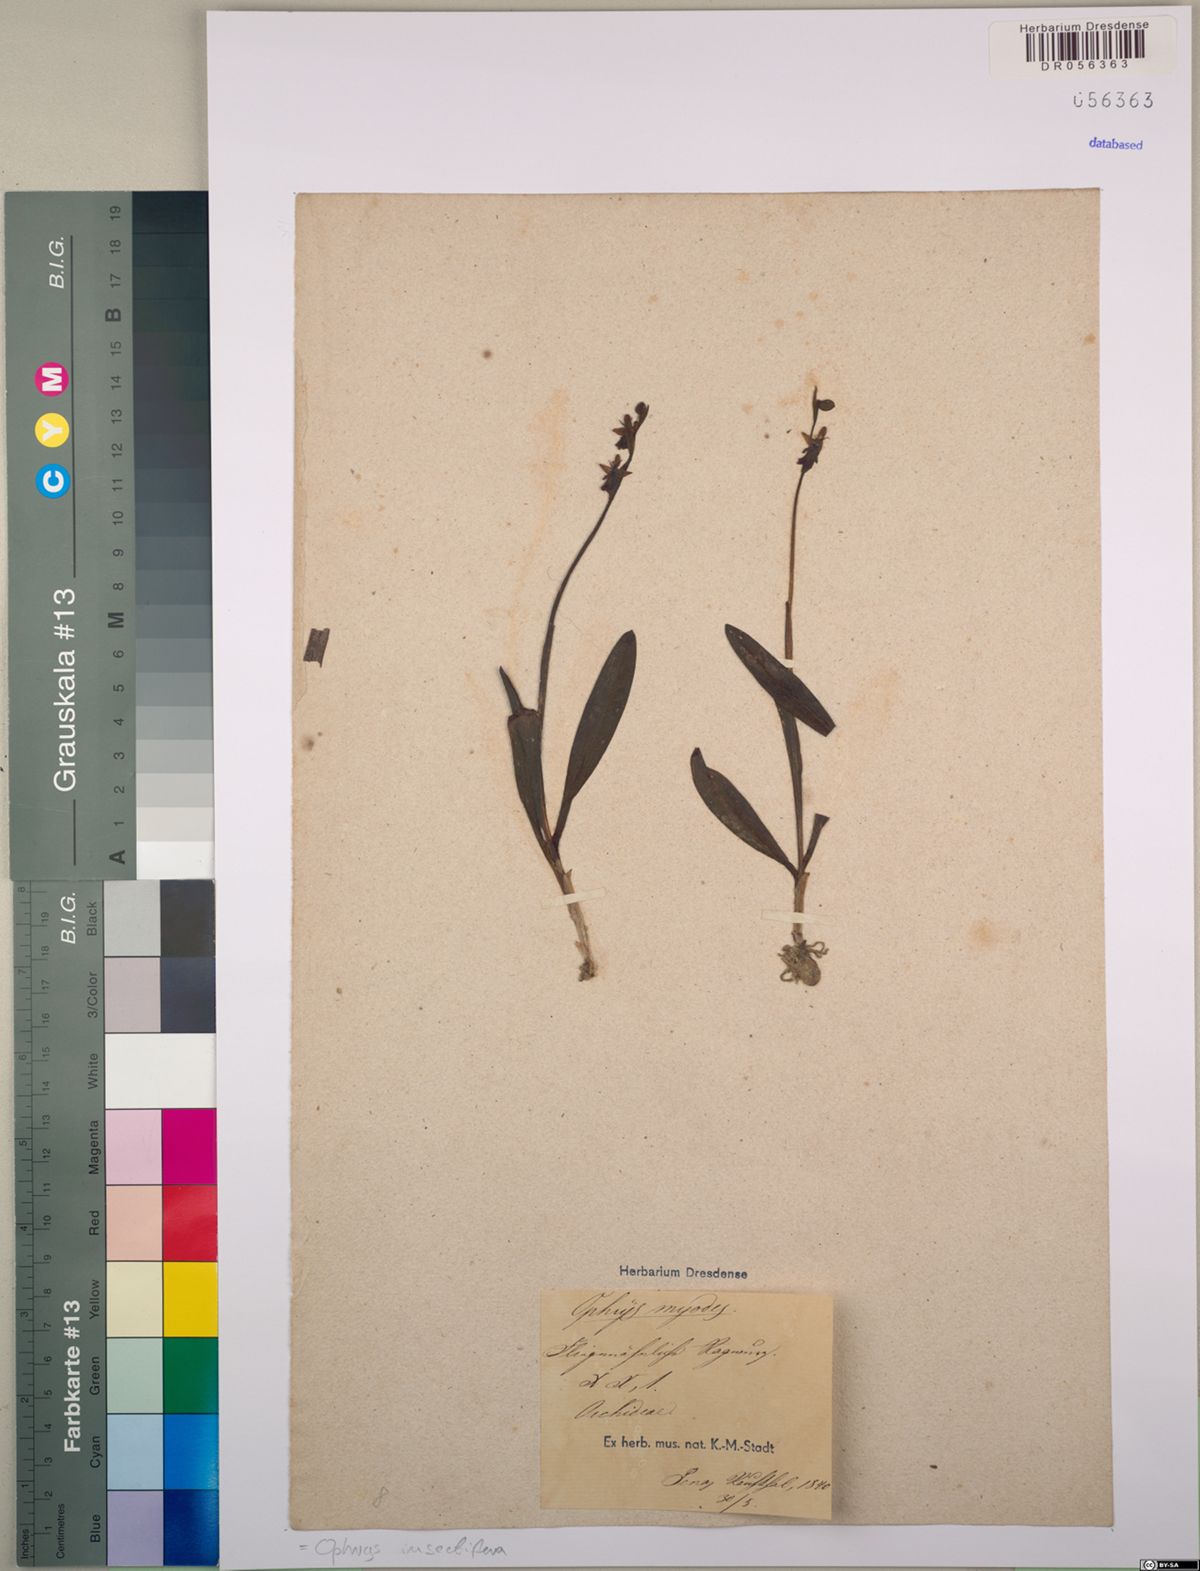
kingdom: Plantae
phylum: Tracheophyta
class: Liliopsida
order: Asparagales
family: Orchidaceae
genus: Ophrys
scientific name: Ophrys insectifera
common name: Fly orchid
